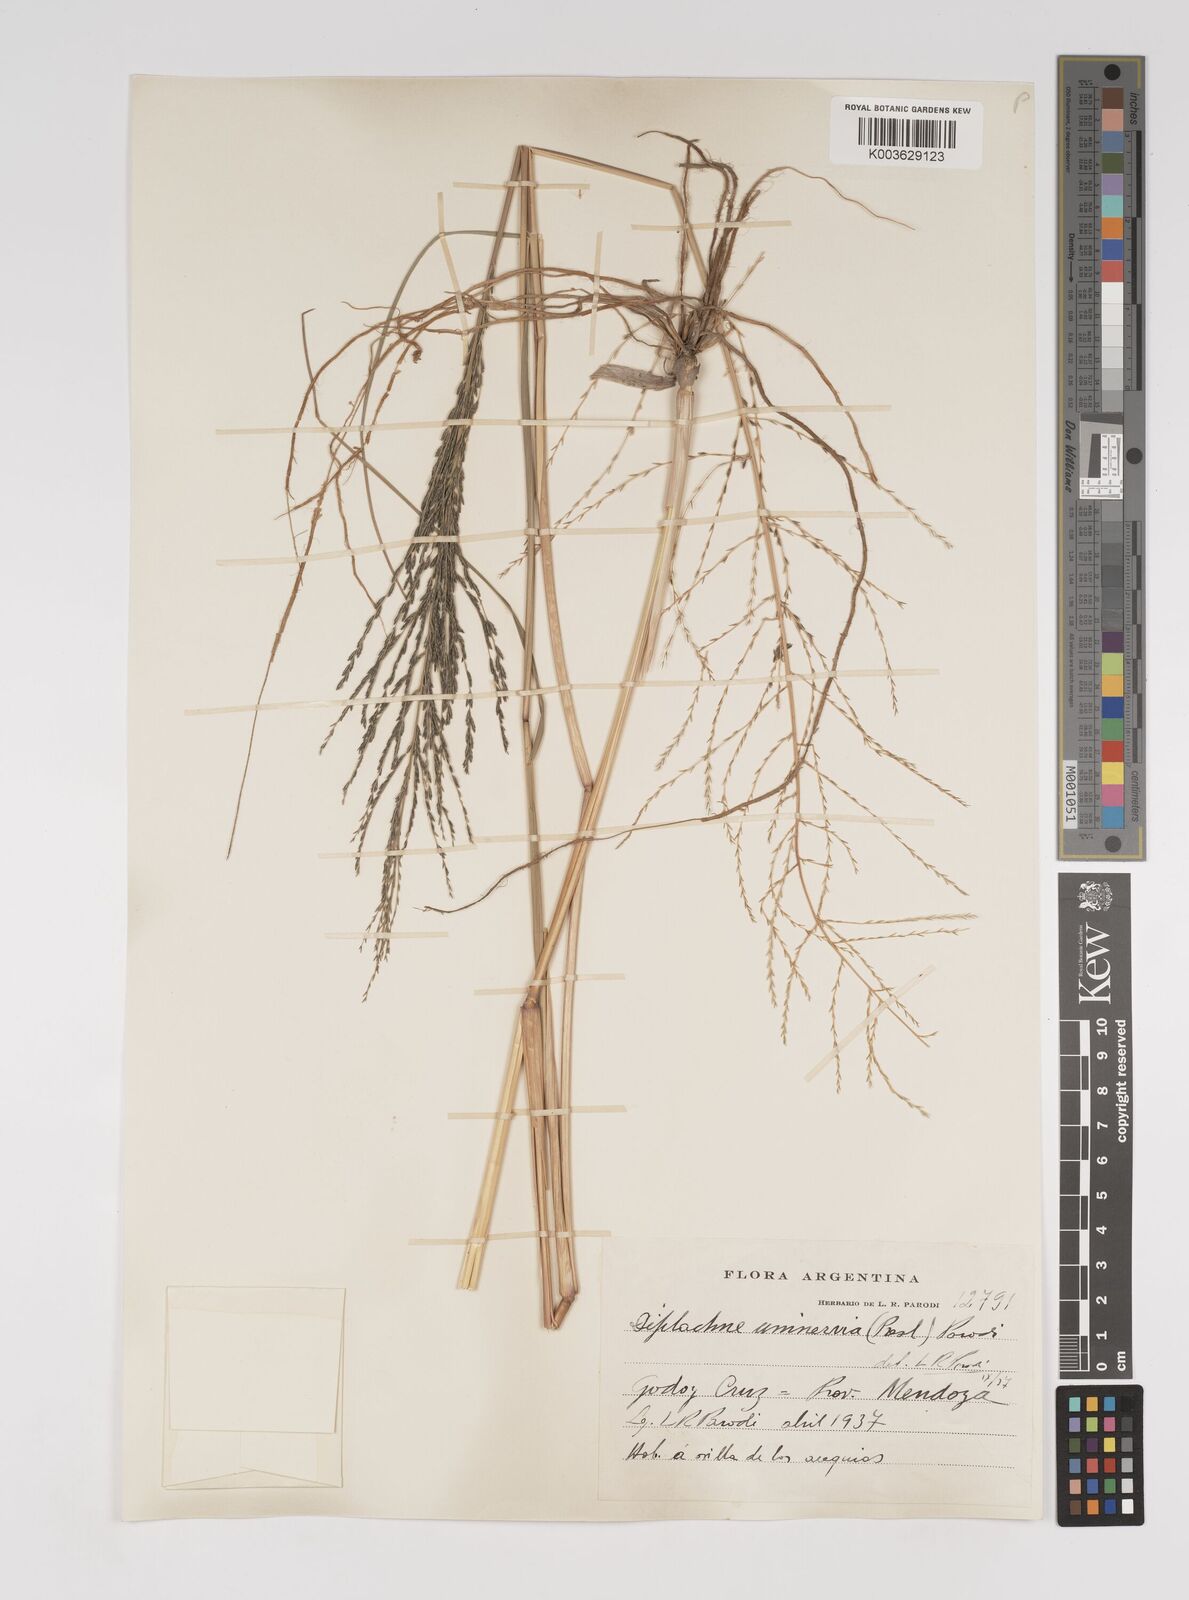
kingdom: Plantae
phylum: Tracheophyta
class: Liliopsida
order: Poales
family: Poaceae
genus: Diplachne
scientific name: Diplachne fusca
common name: Brown beetle grass
